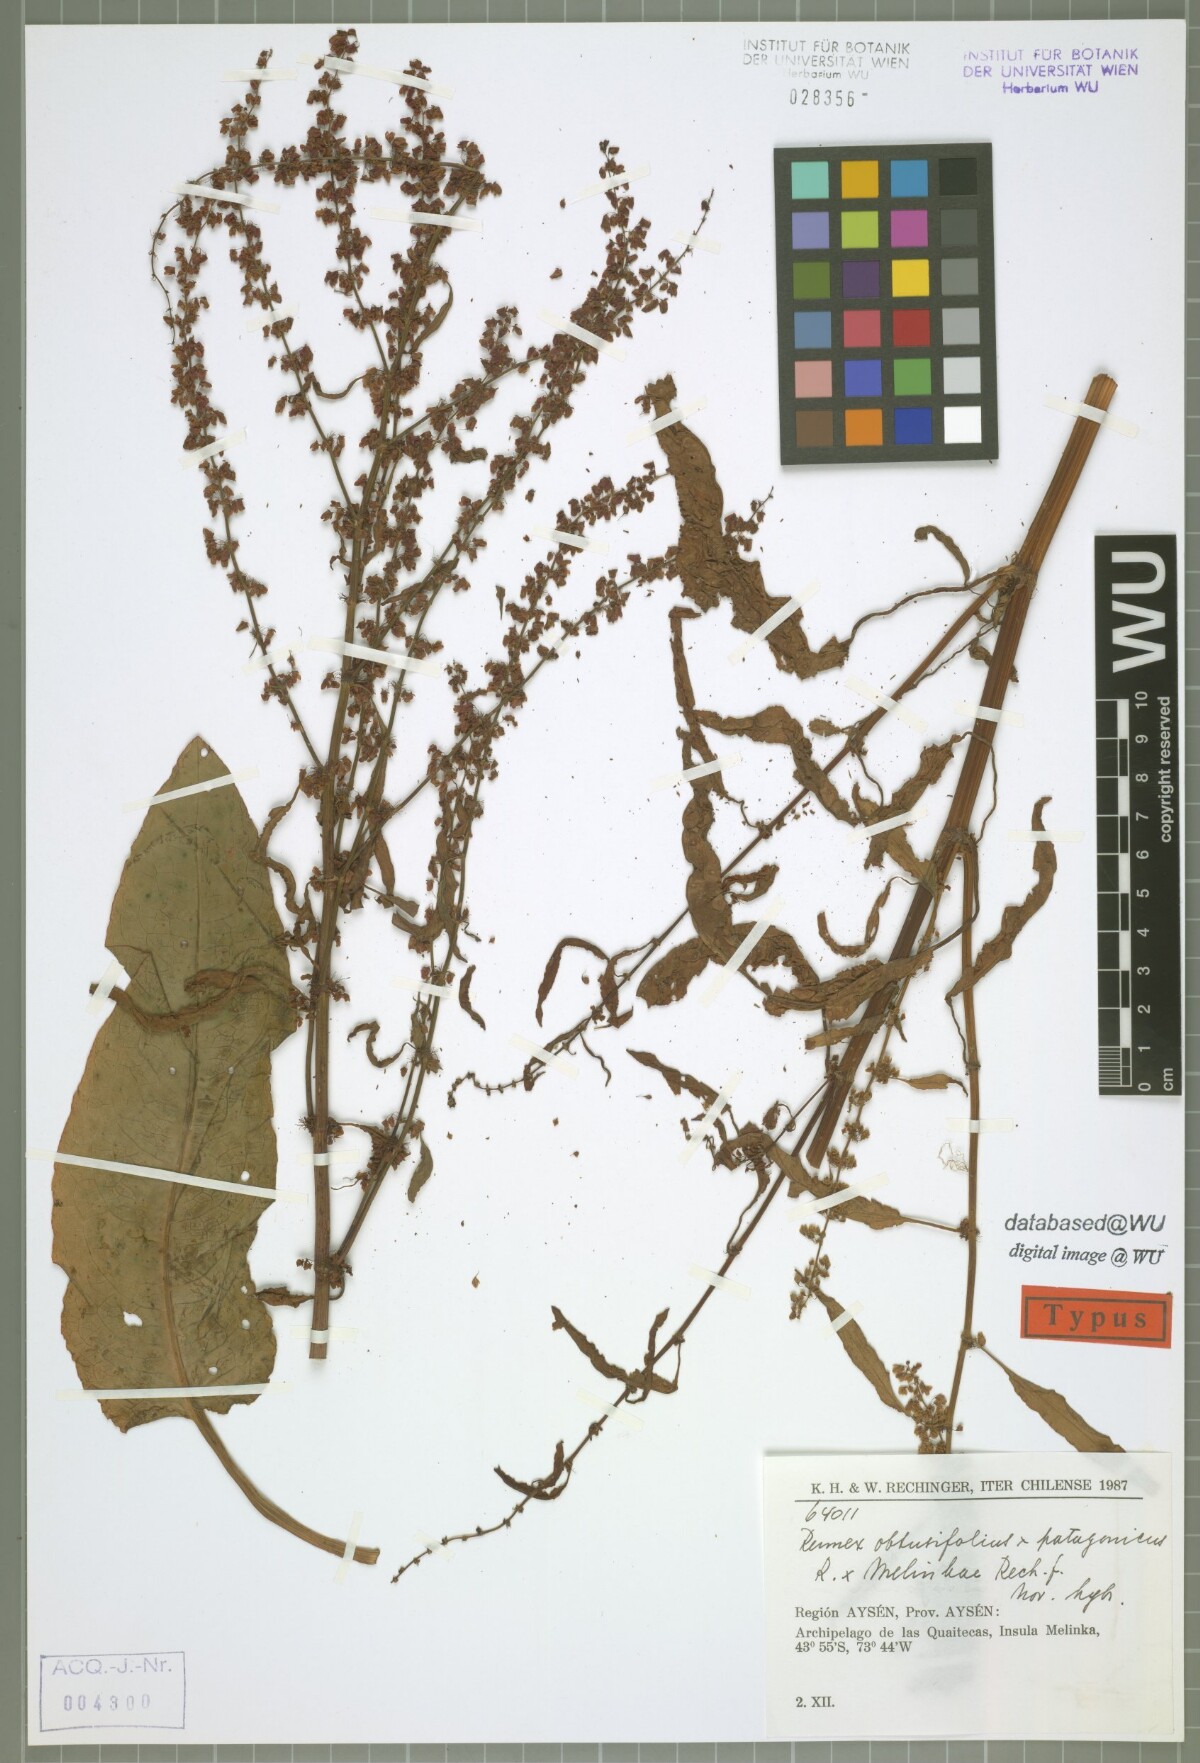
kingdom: Plantae
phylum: Tracheophyta
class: Magnoliopsida
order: Caryophyllales
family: Polygonaceae
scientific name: Polygonaceae
